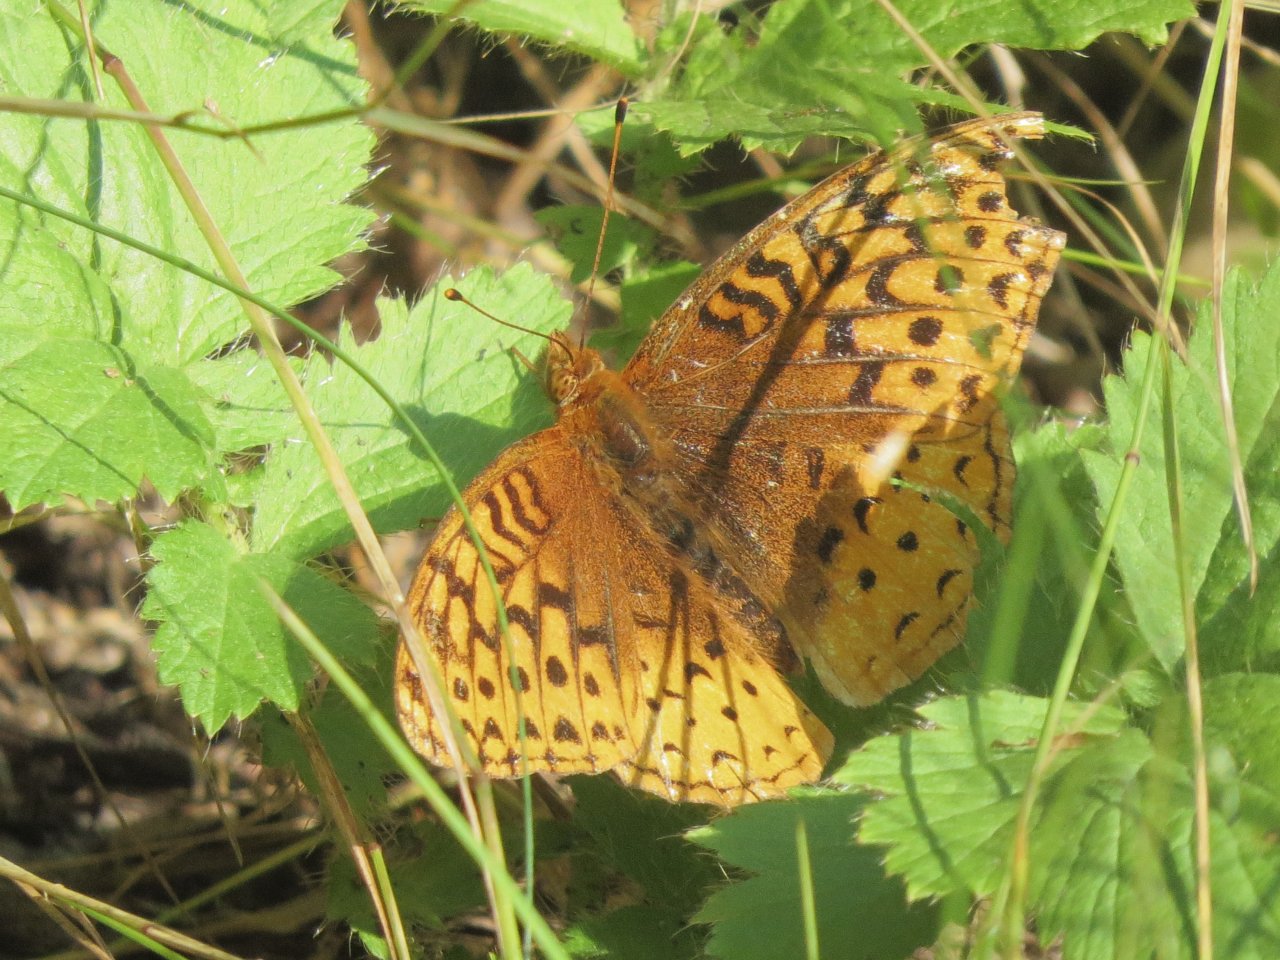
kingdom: Animalia
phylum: Arthropoda
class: Insecta
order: Lepidoptera
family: Nymphalidae
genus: Speyeria
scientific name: Speyeria cybele
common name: Great Spangled Fritillary
